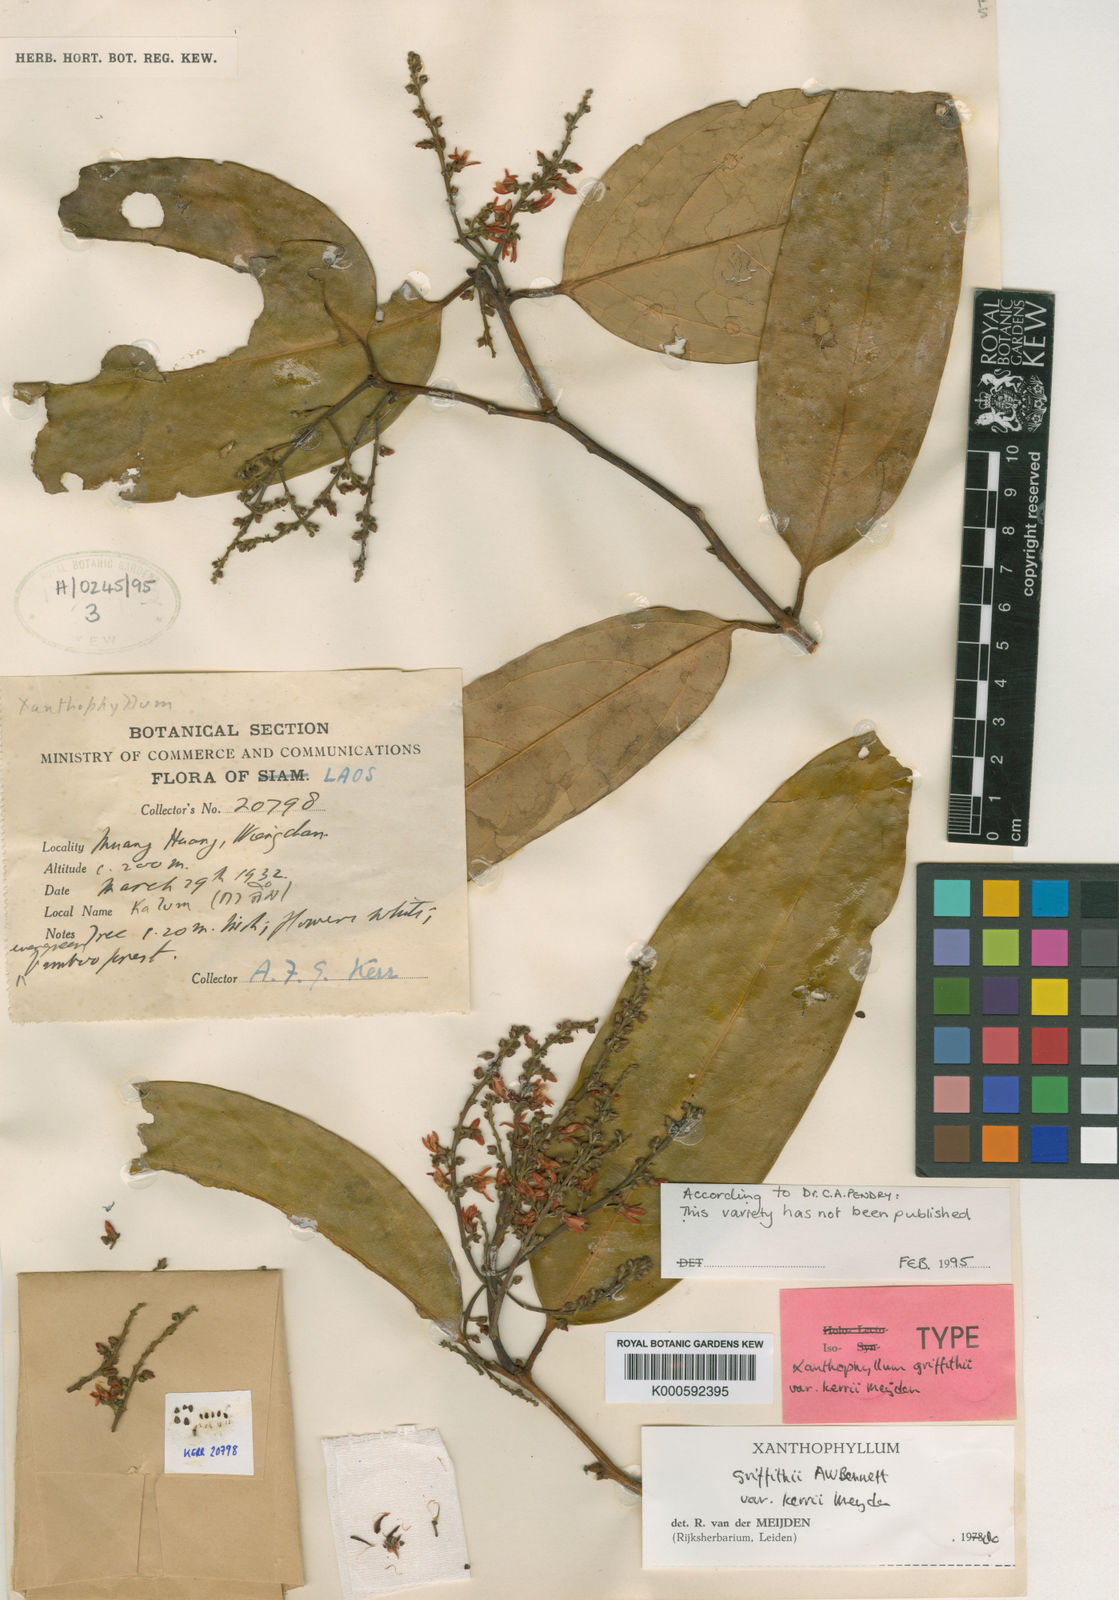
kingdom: Plantae
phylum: Tracheophyta
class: Magnoliopsida
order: Fabales
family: Polygalaceae
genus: Xanthophyllum
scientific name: Xanthophyllum griffithii
